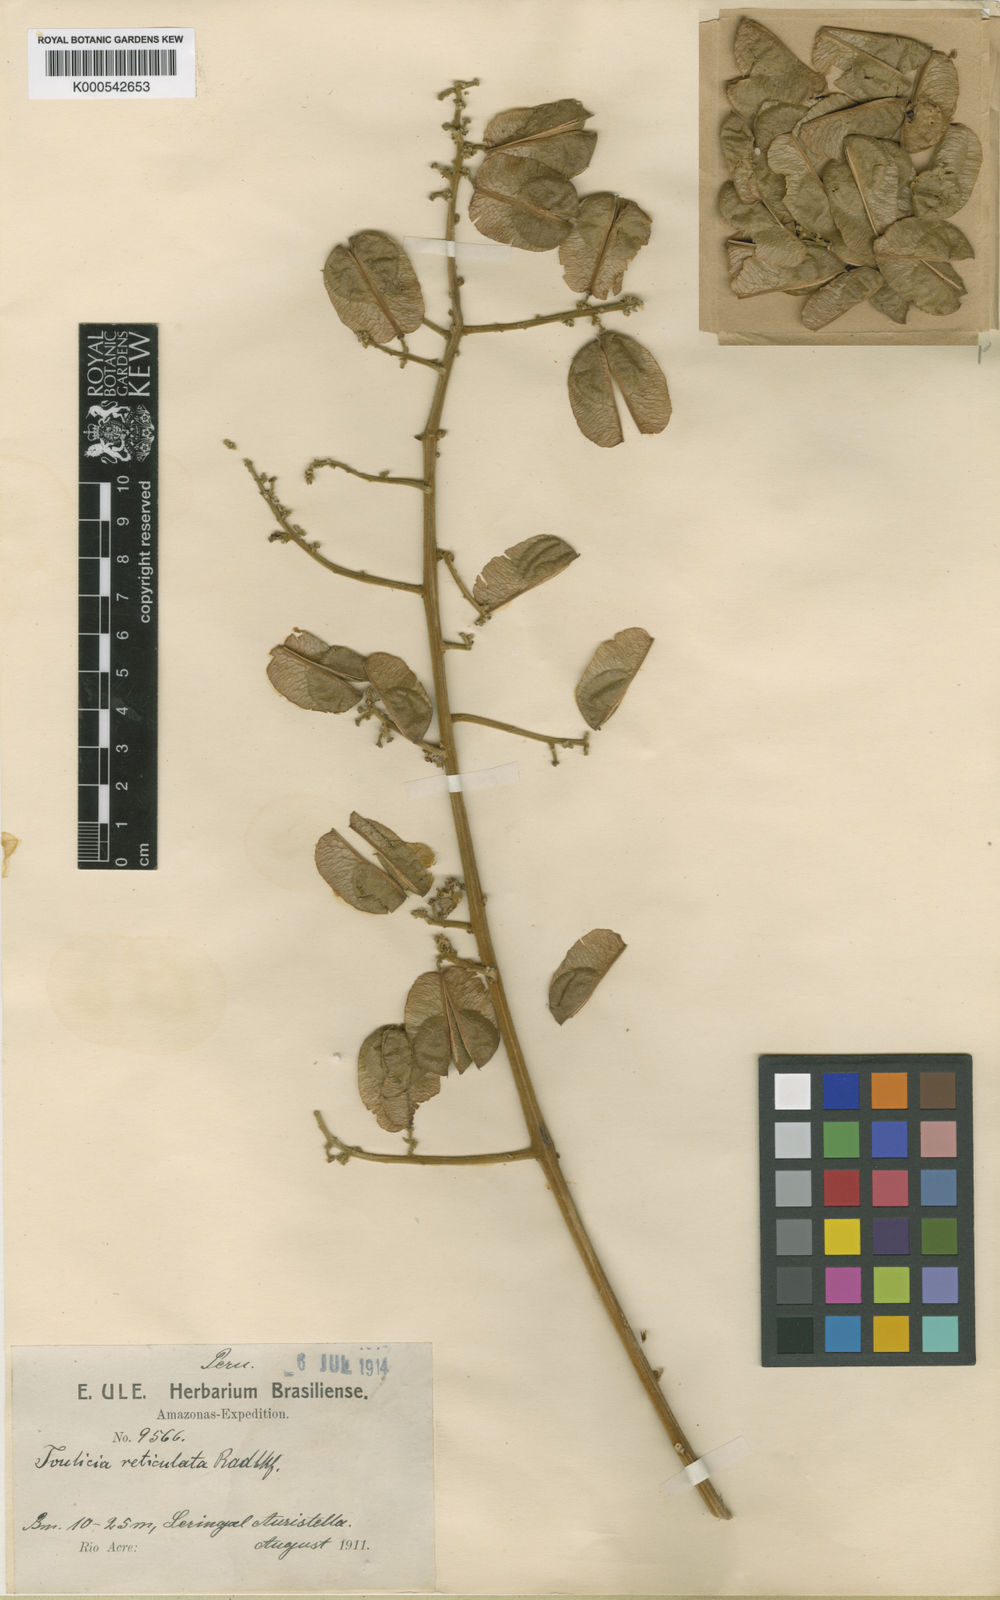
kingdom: Plantae
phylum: Tracheophyta
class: Magnoliopsida
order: Sapindales
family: Sapindaceae
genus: Toulicia
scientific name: Toulicia reticulata
